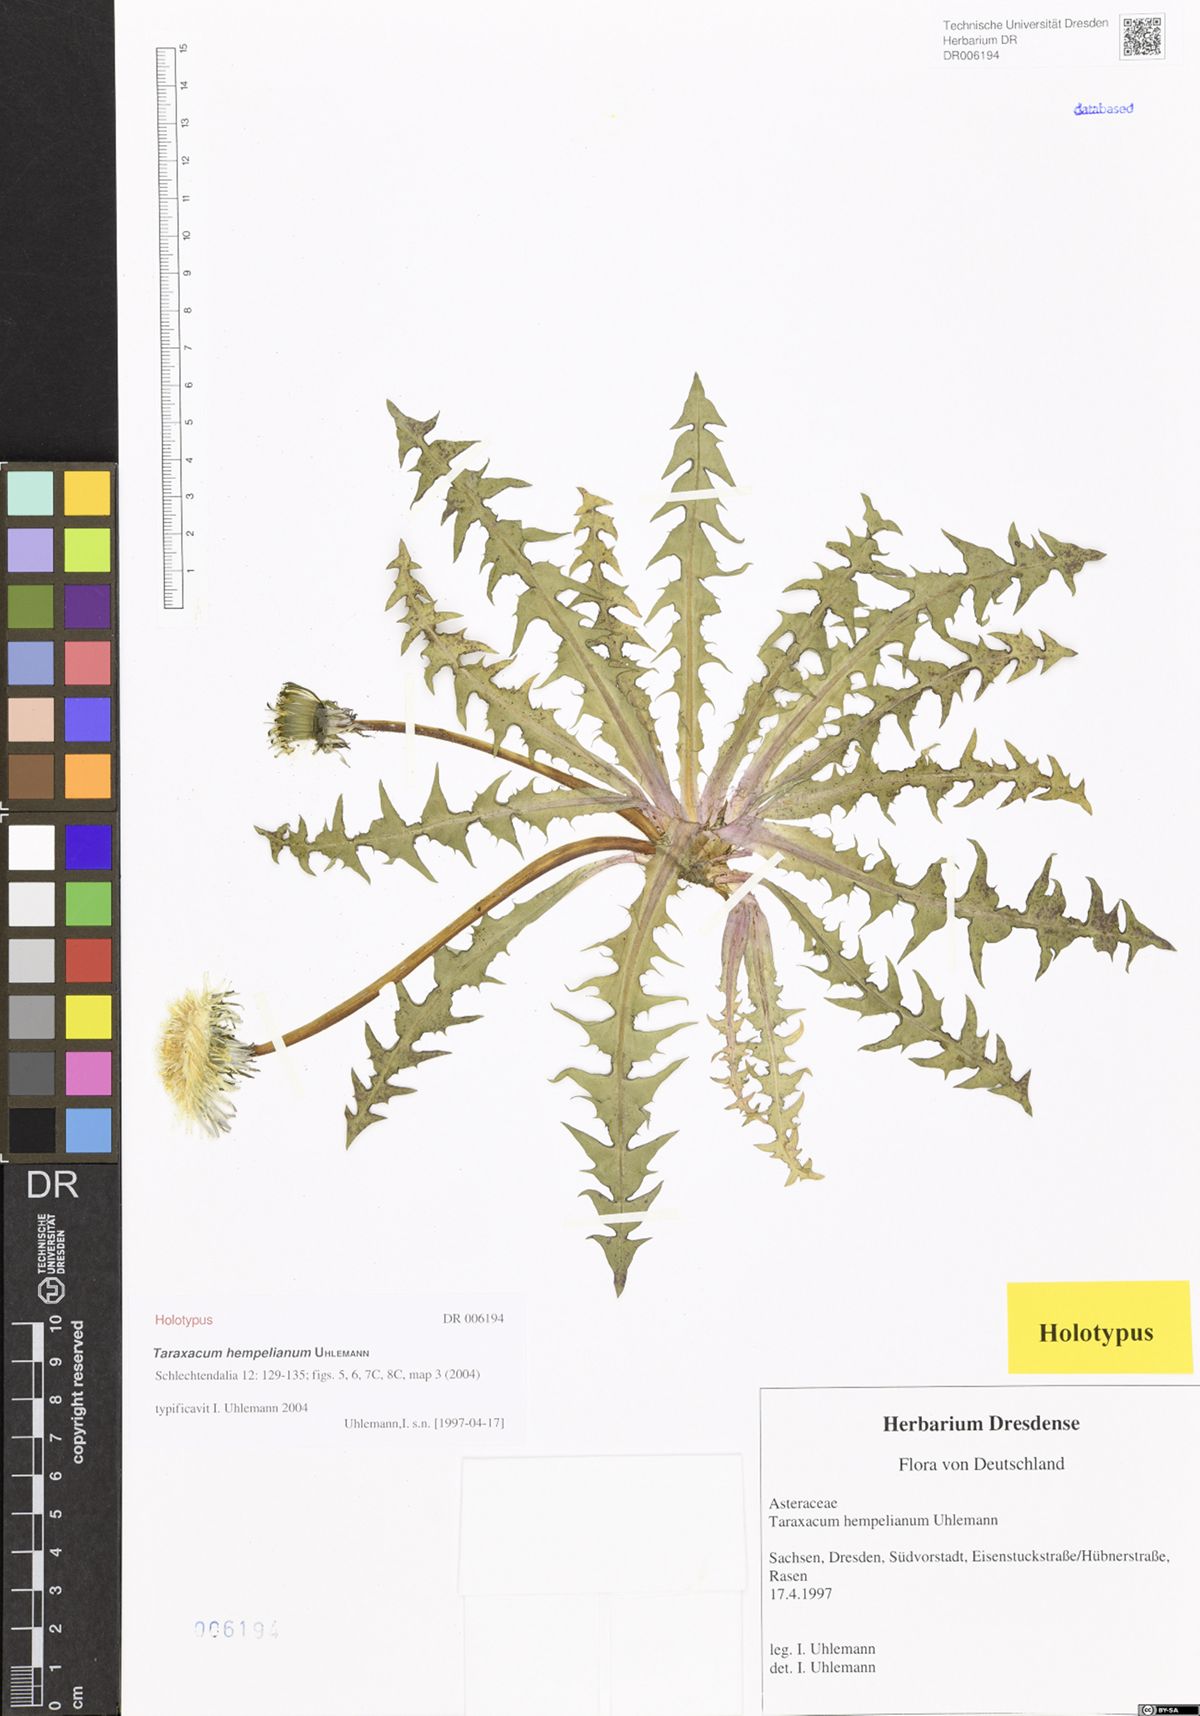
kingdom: Plantae
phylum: Tracheophyta
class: Magnoliopsida
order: Asterales
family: Asteraceae
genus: Taraxacum
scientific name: Taraxacum hempelianum
